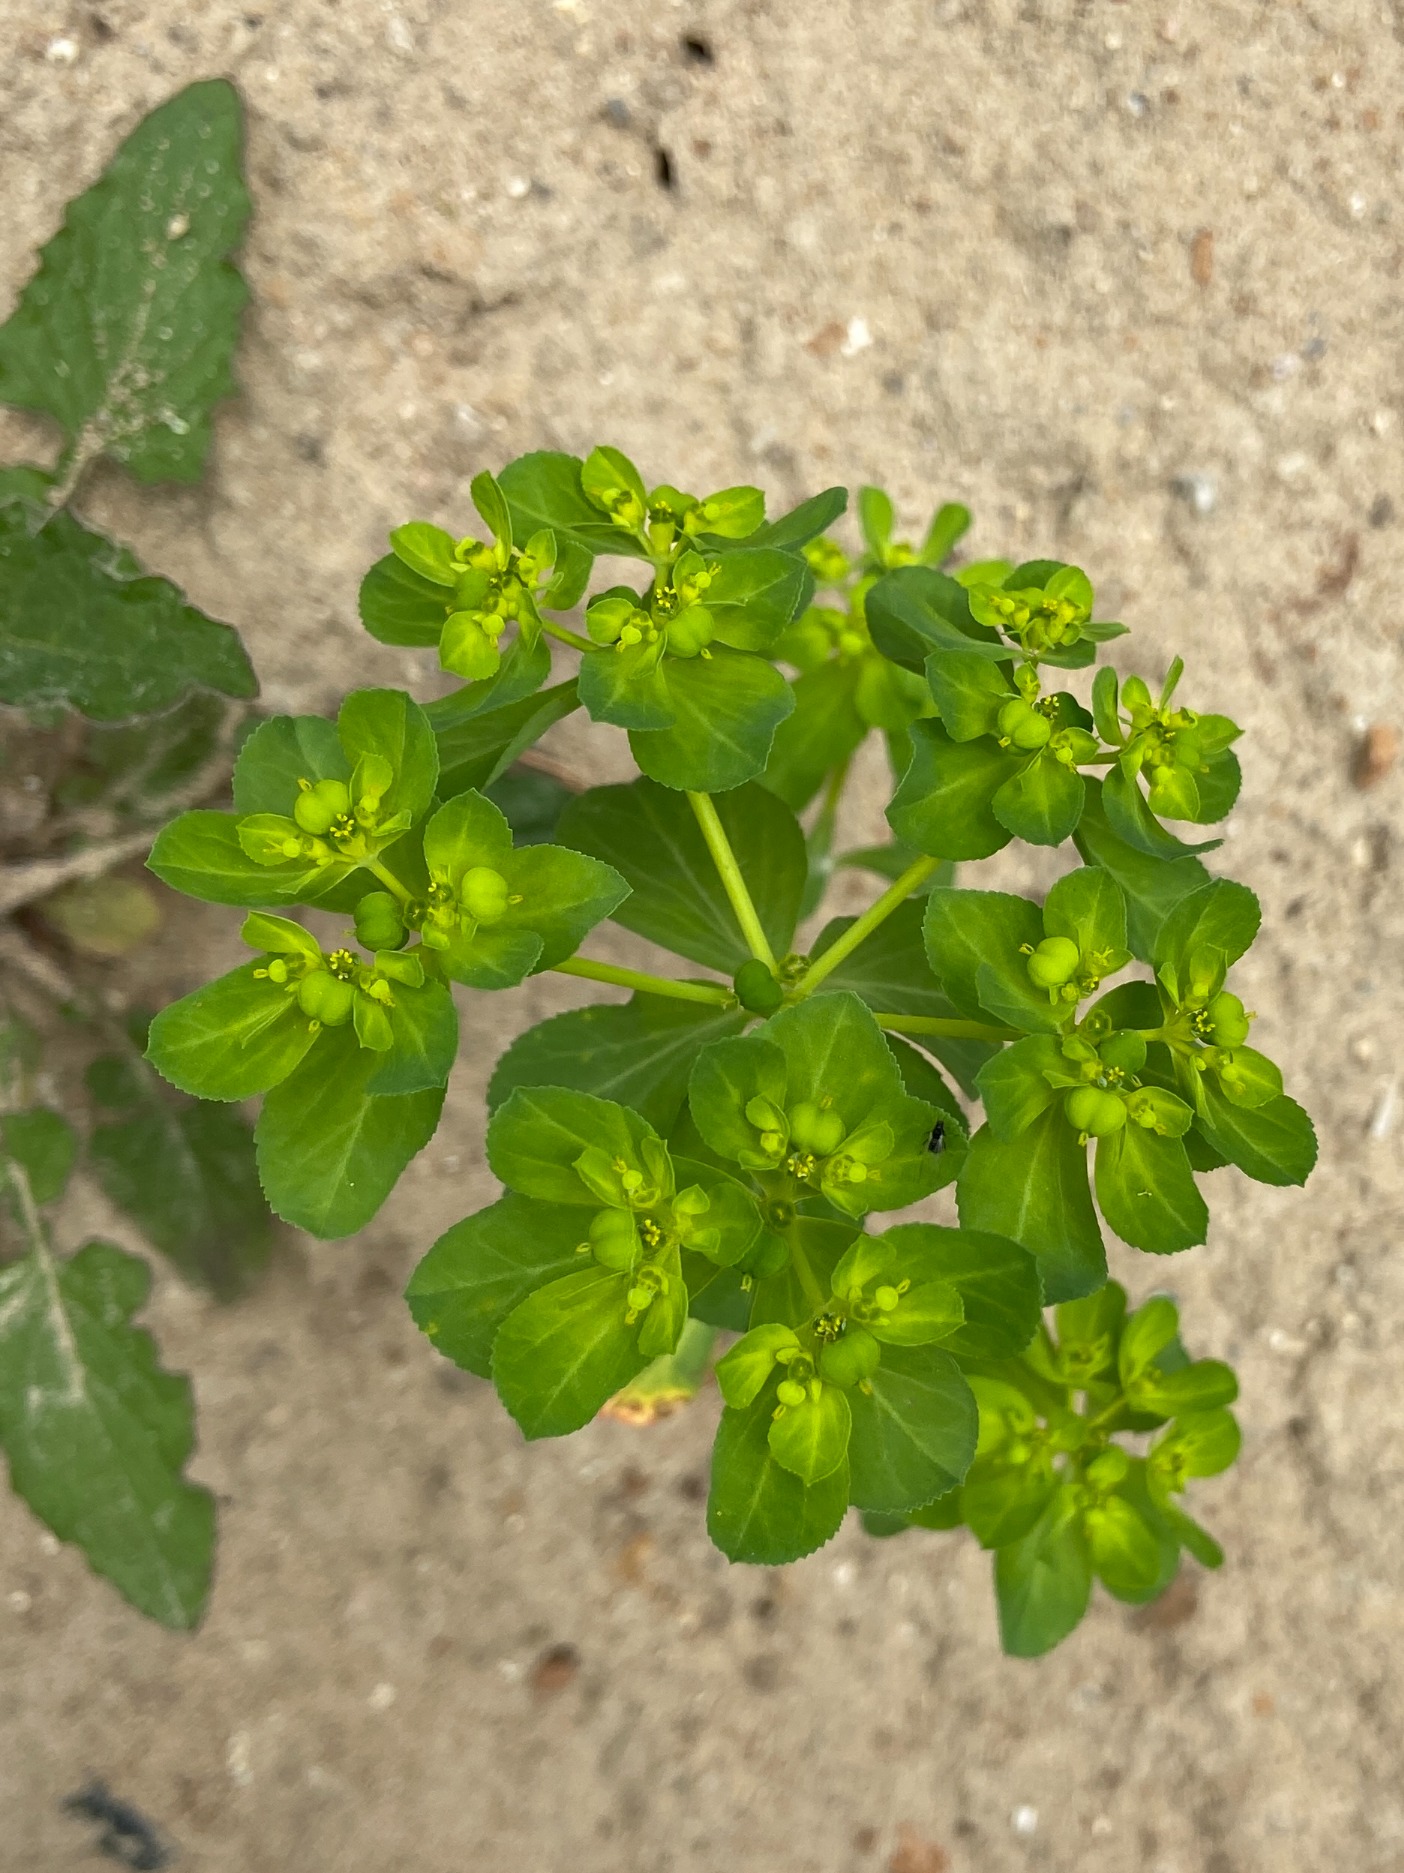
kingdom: Plantae
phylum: Tracheophyta
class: Magnoliopsida
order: Malpighiales
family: Euphorbiaceae
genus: Euphorbia
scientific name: Euphorbia helioscopia
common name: Skærm-vortemælk
